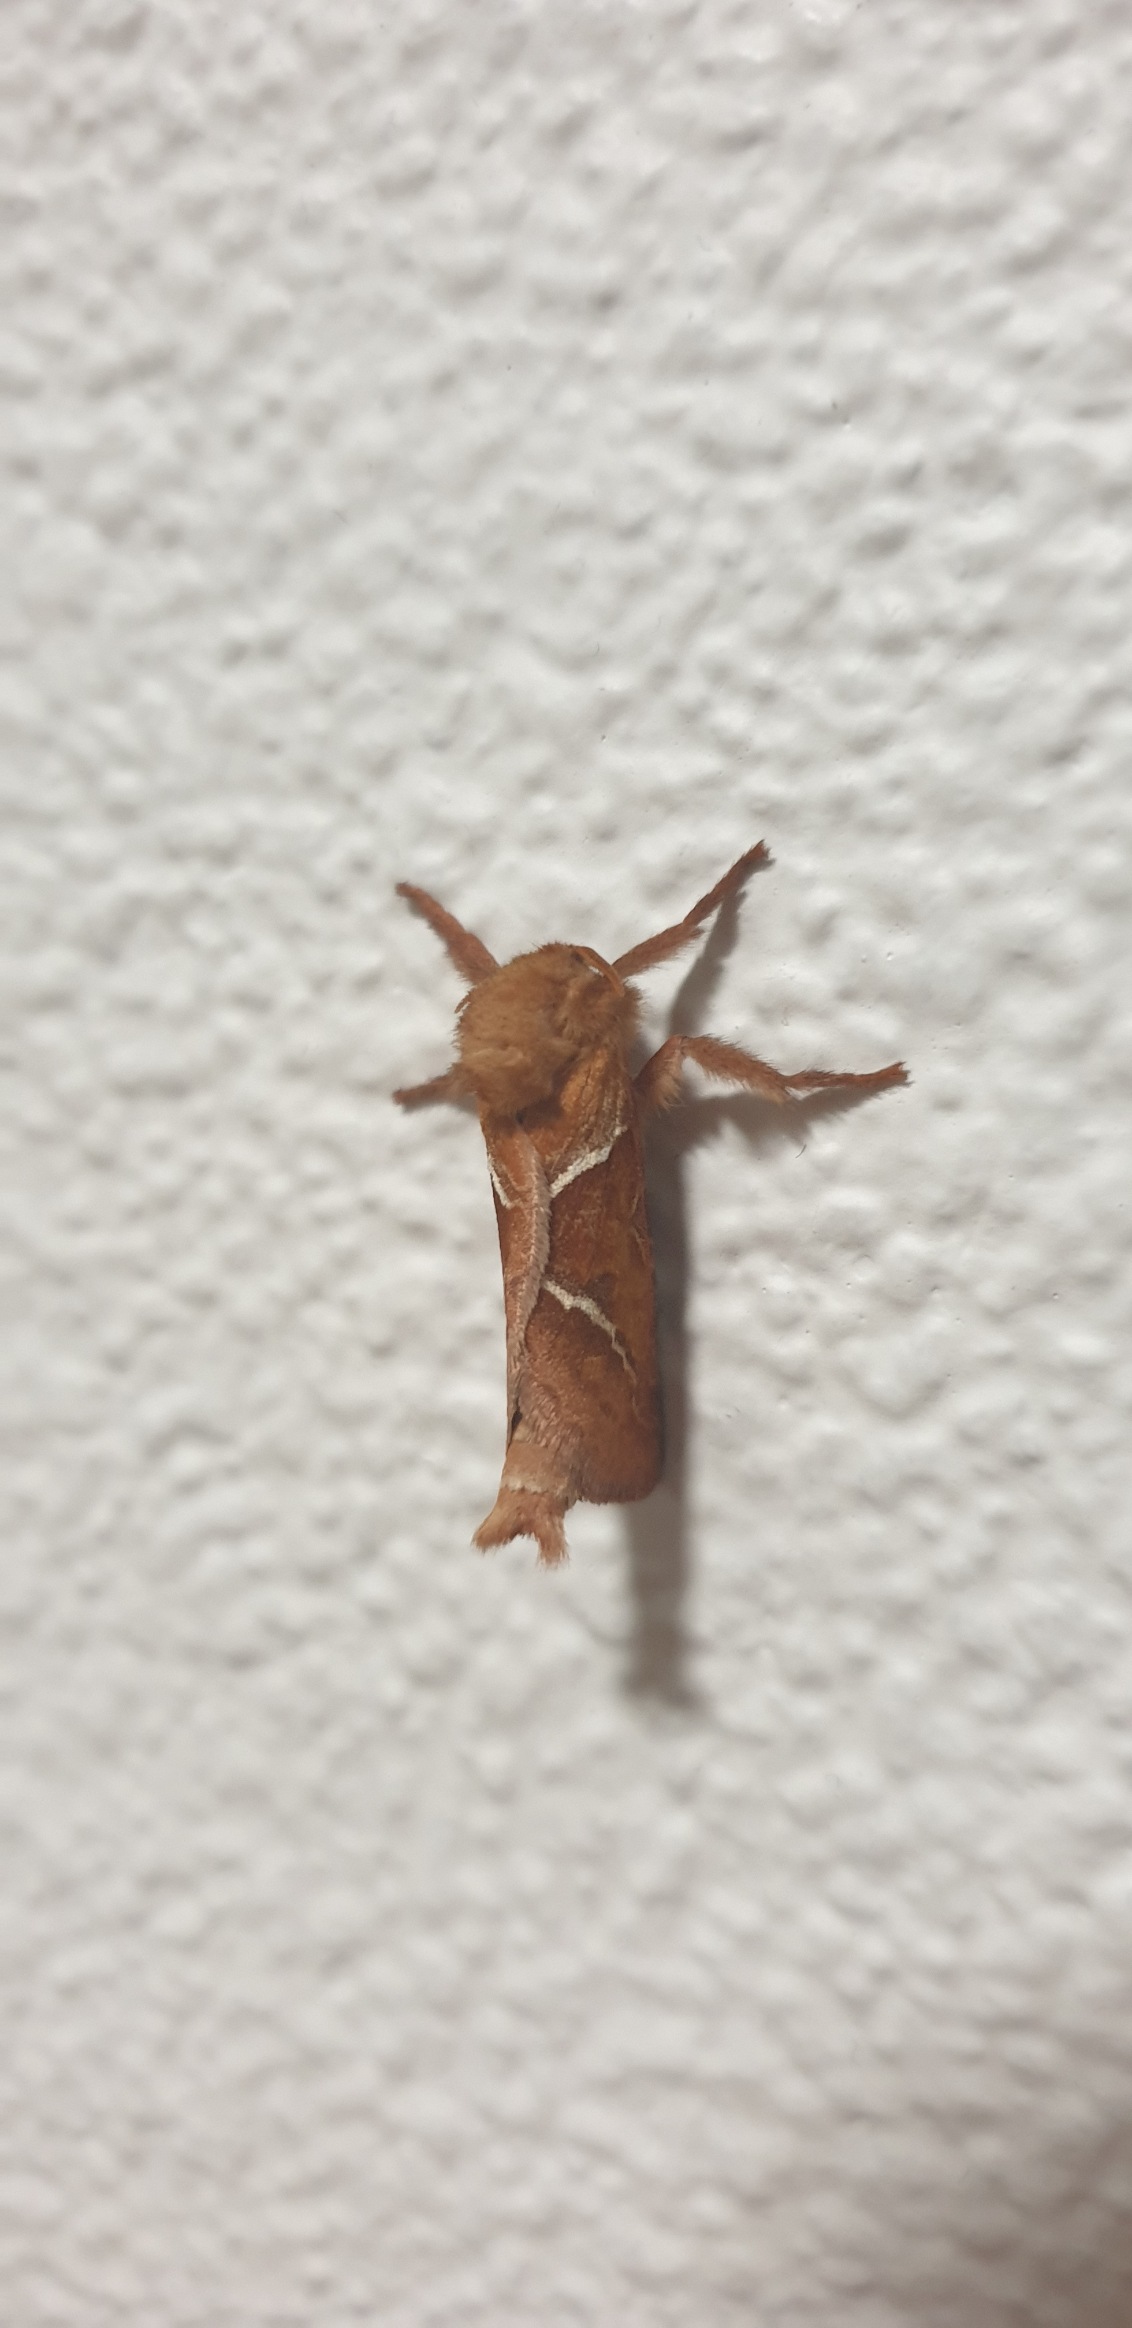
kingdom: Animalia
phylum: Arthropoda
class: Insecta
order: Lepidoptera
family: Hepialidae
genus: Triodia
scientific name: Triodia sylvina
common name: Skræpperodæder
